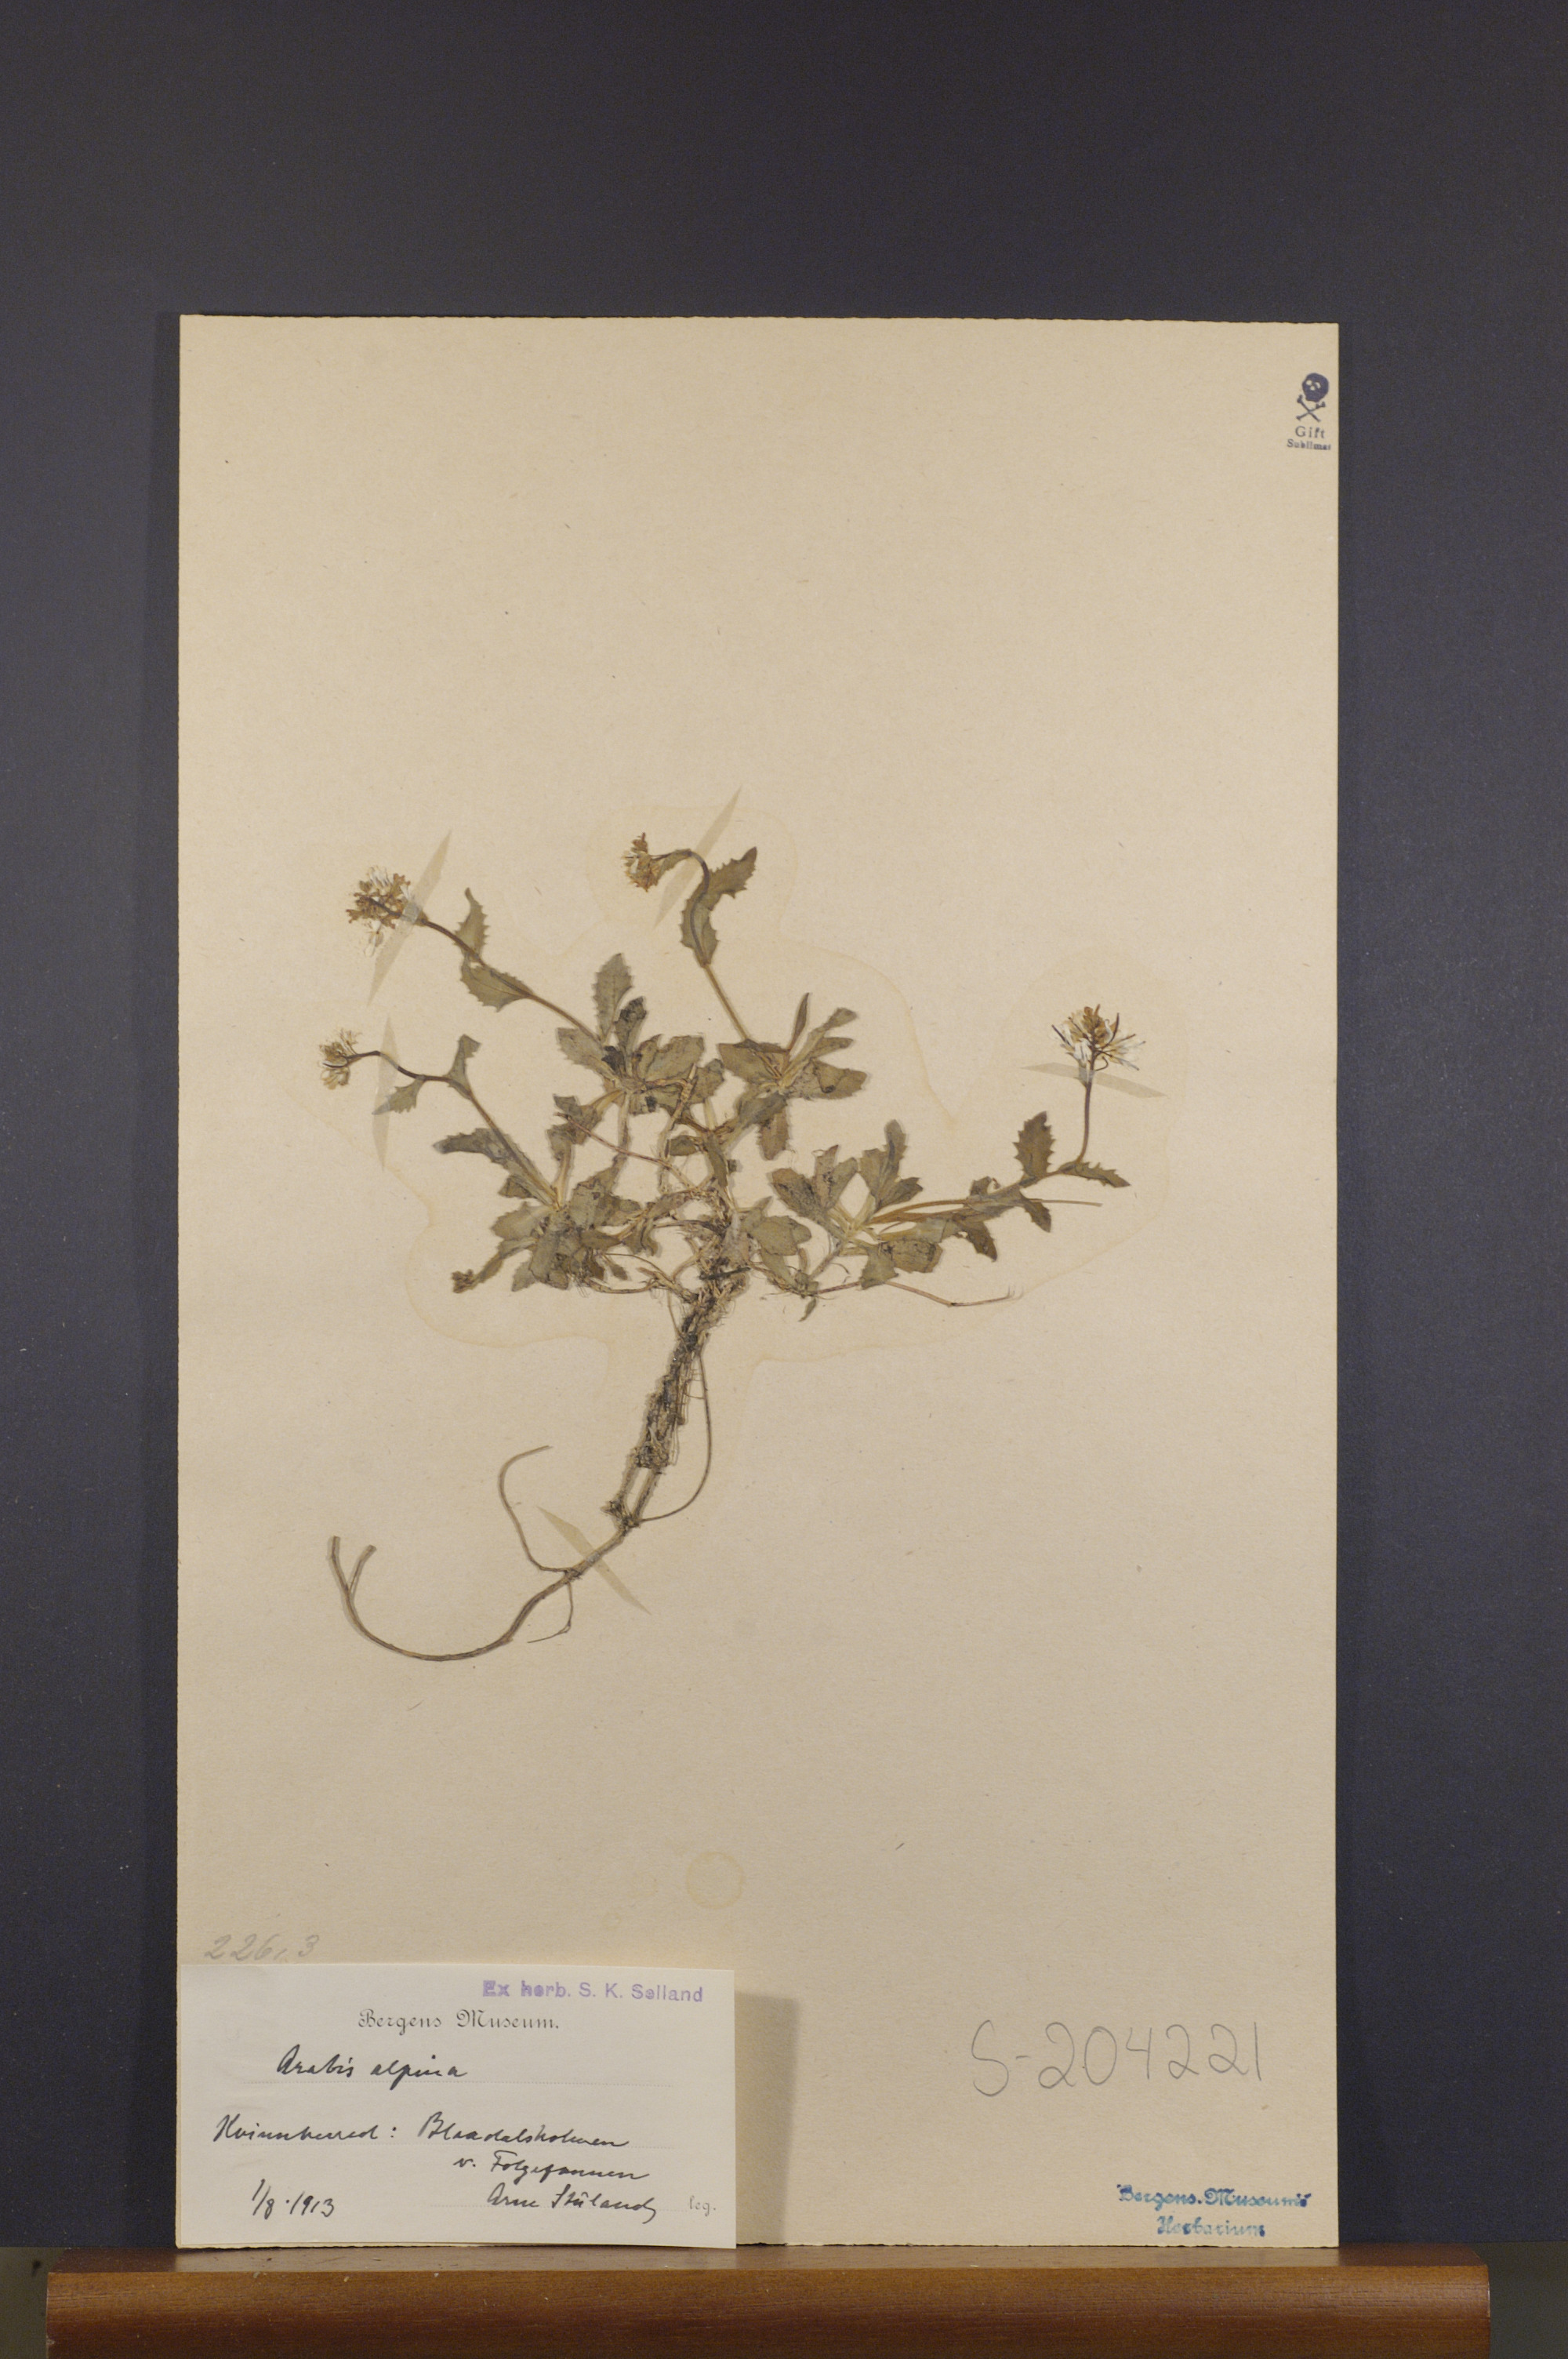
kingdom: Plantae
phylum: Tracheophyta
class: Magnoliopsida
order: Brassicales
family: Brassicaceae
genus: Arabis
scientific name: Arabis alpina
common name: Alpine rock-cress
